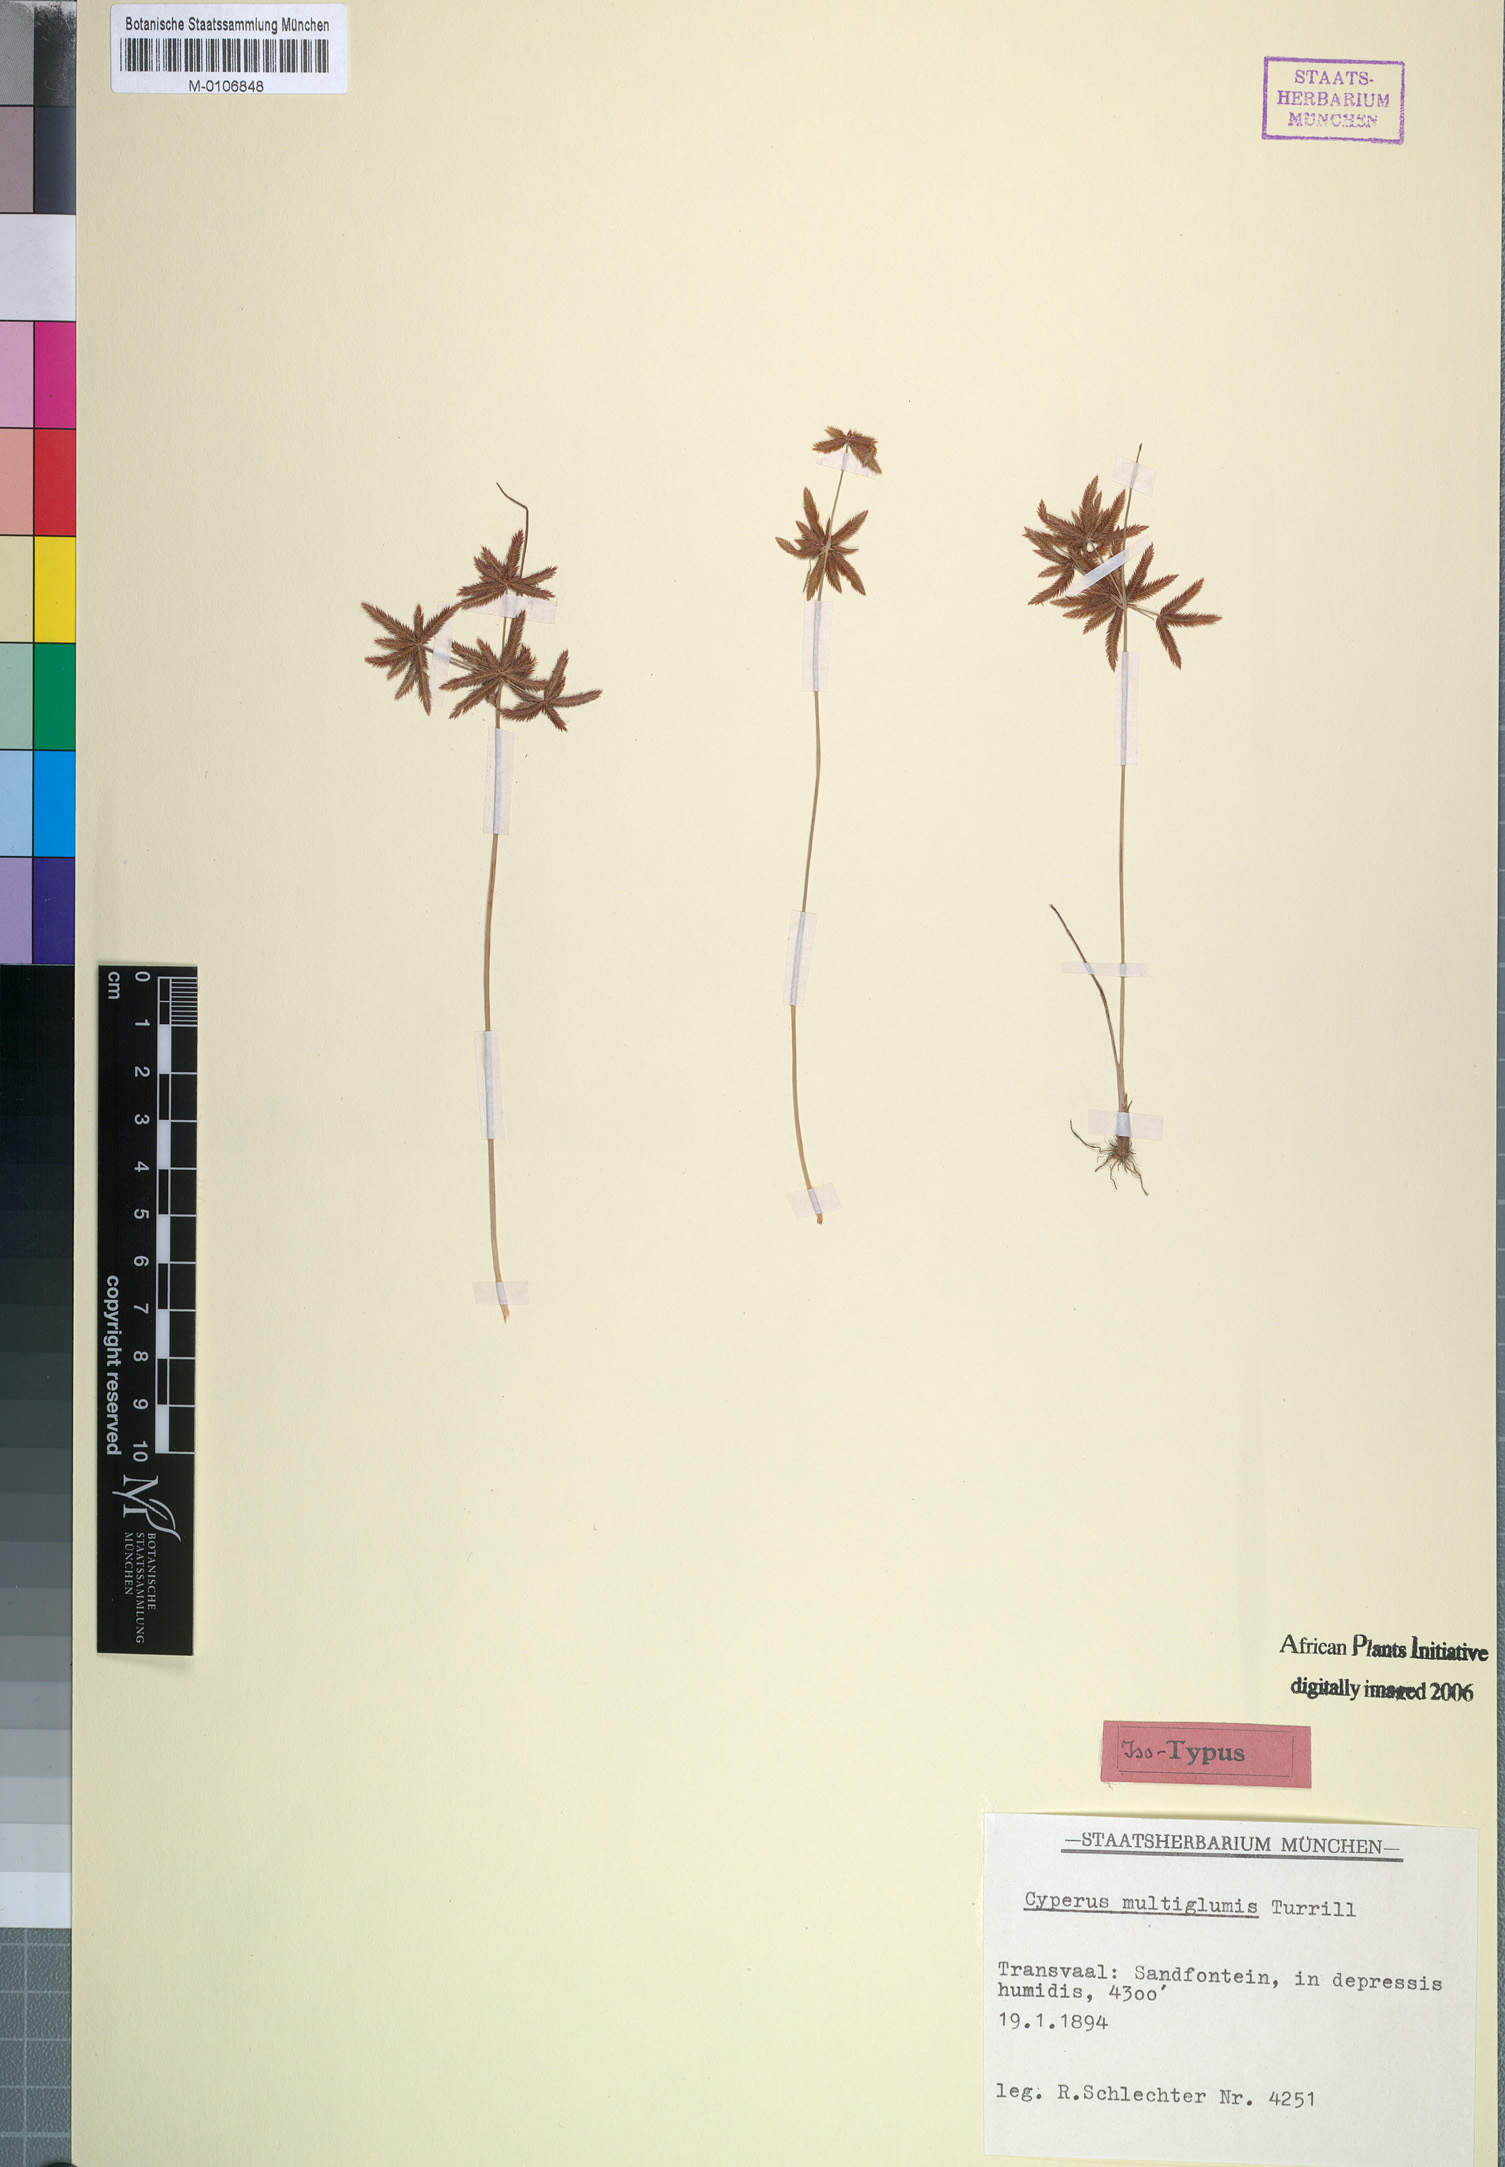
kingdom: Plantae
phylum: Tracheophyta
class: Liliopsida
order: Poales
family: Cyperaceae
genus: Cyperus
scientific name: Cyperus semitrifidus
